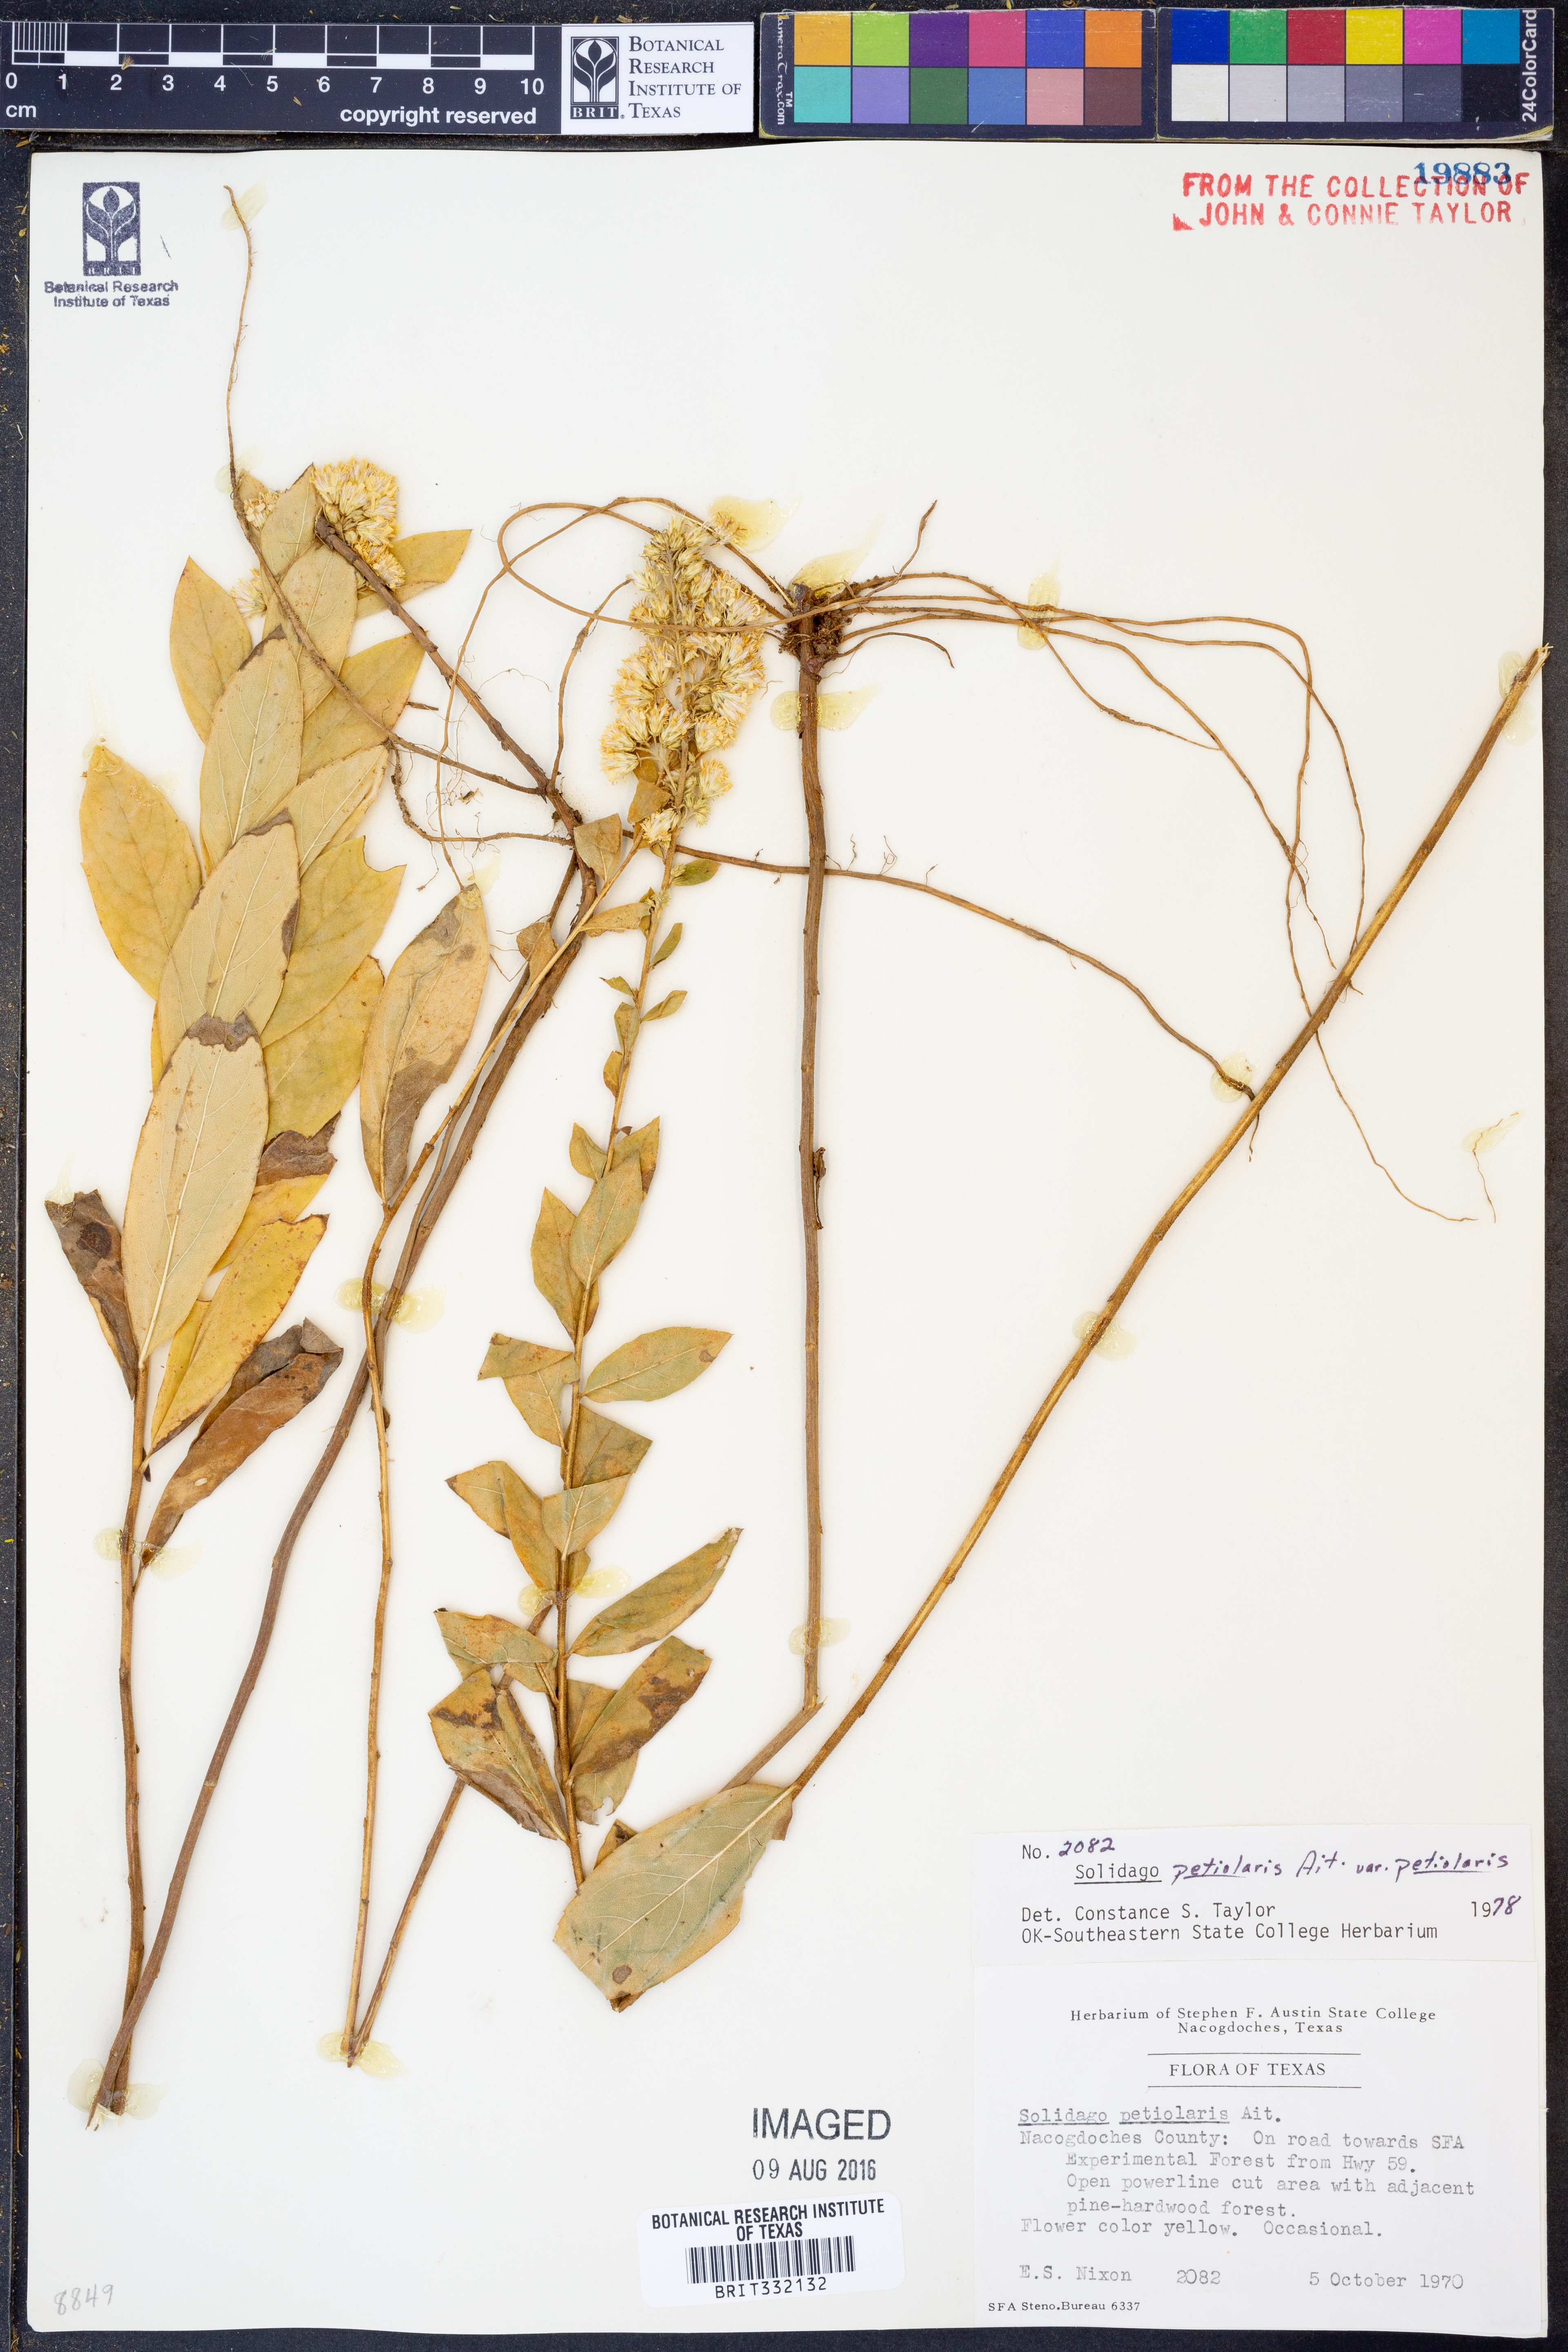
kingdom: Plantae
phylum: Tracheophyta
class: Magnoliopsida
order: Asterales
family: Asteraceae
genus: Solidago
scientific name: Solidago petiolaris
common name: Downy ragged goldenrod
